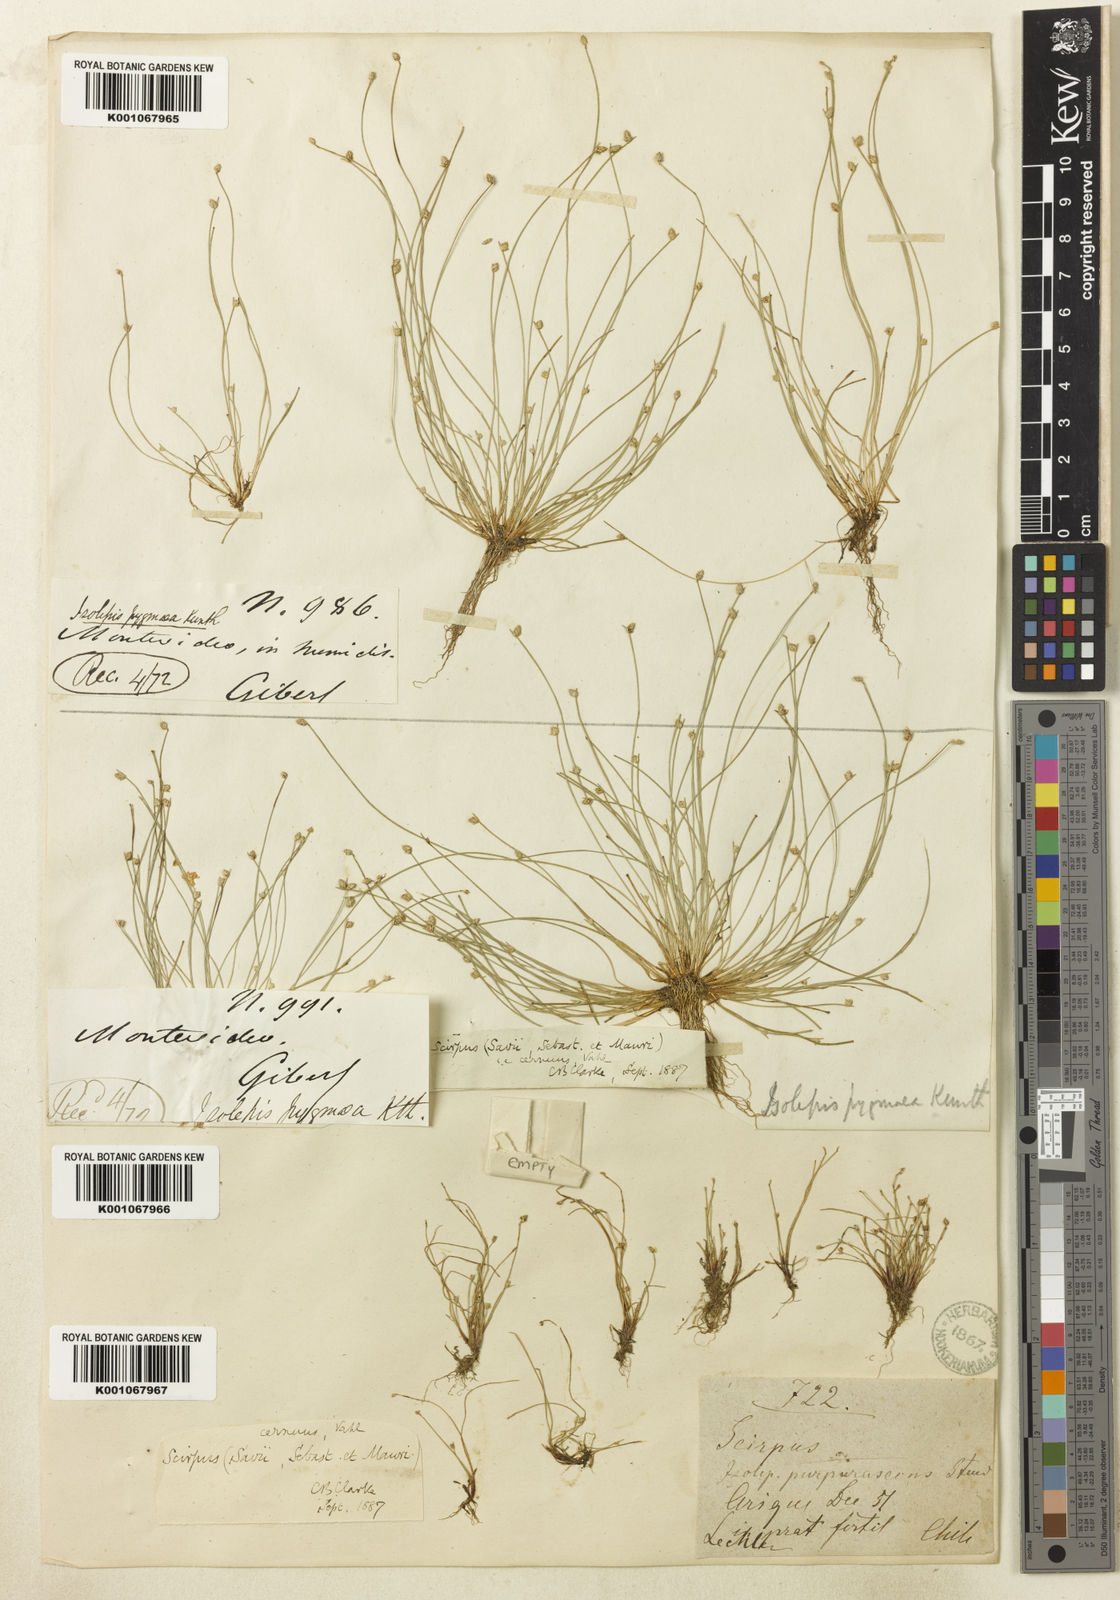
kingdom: Plantae
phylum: Tracheophyta
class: Liliopsida
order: Poales
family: Cyperaceae
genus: Isolepis
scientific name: Isolepis cernua
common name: Slender club-rush
